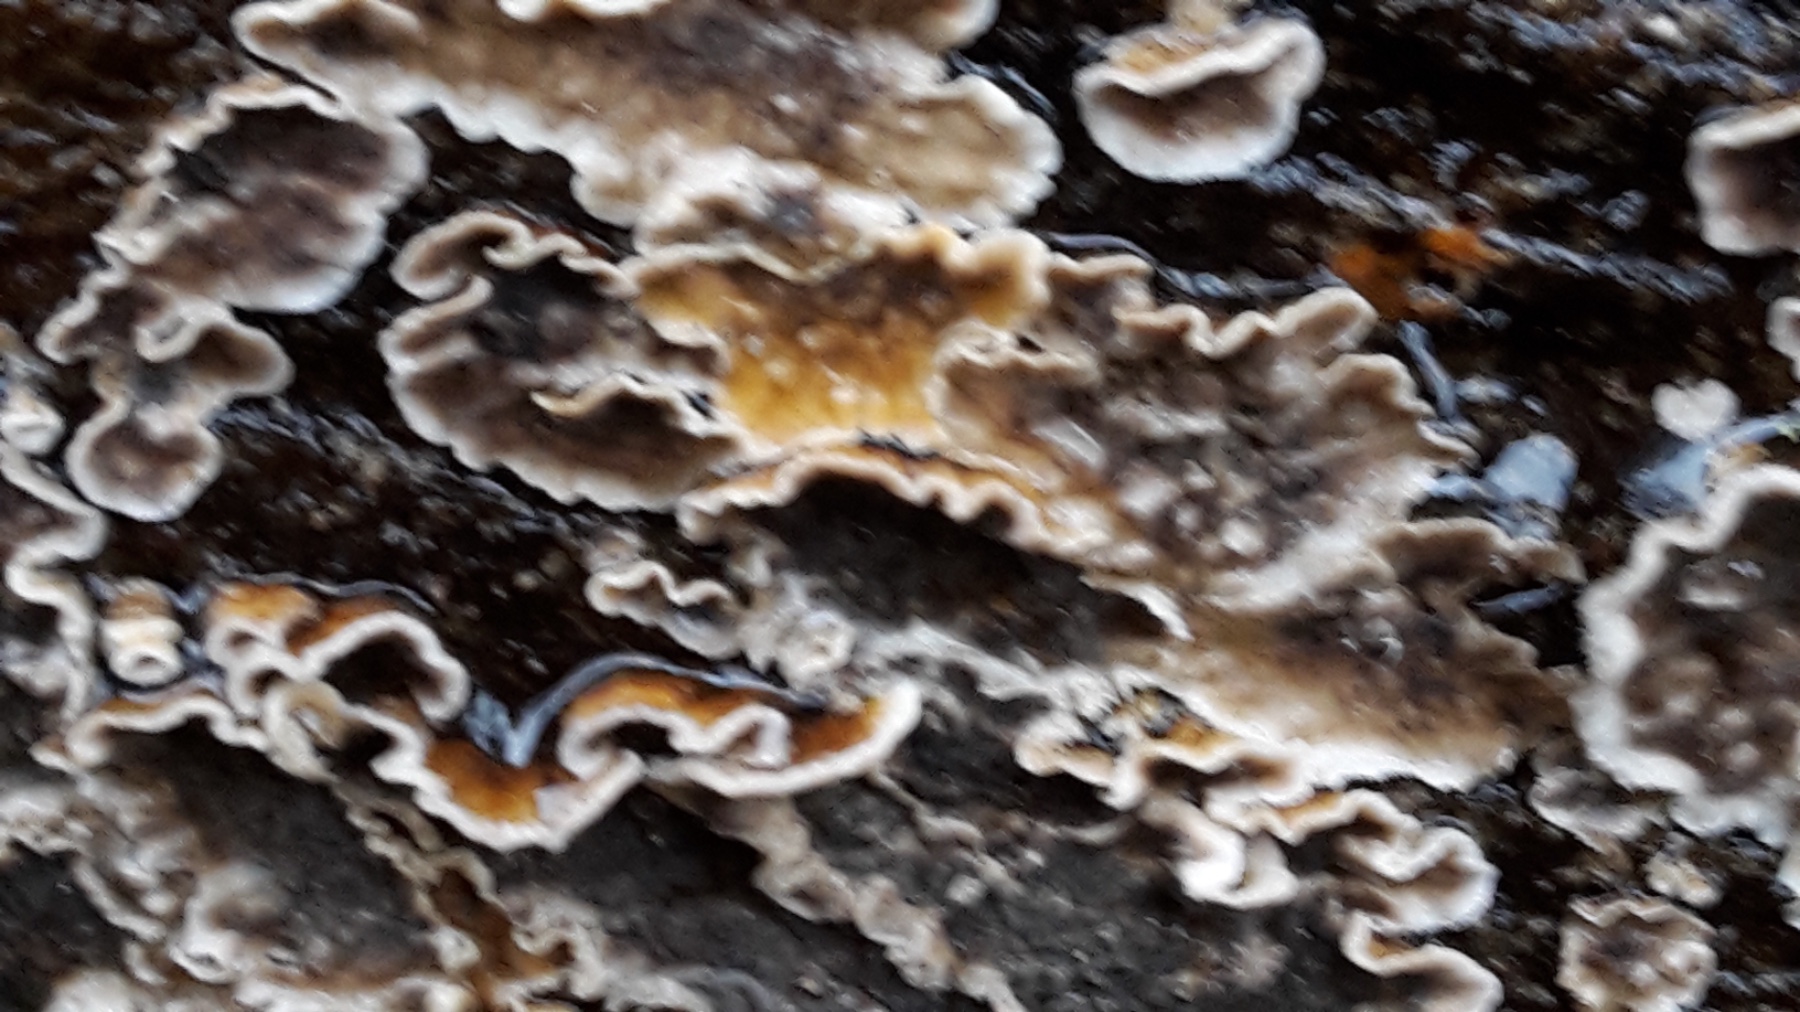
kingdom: Fungi
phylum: Basidiomycota
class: Agaricomycetes
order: Russulales
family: Stereaceae
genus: Stereum
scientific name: Stereum sanguinolentum
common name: blødende lædersvamp
